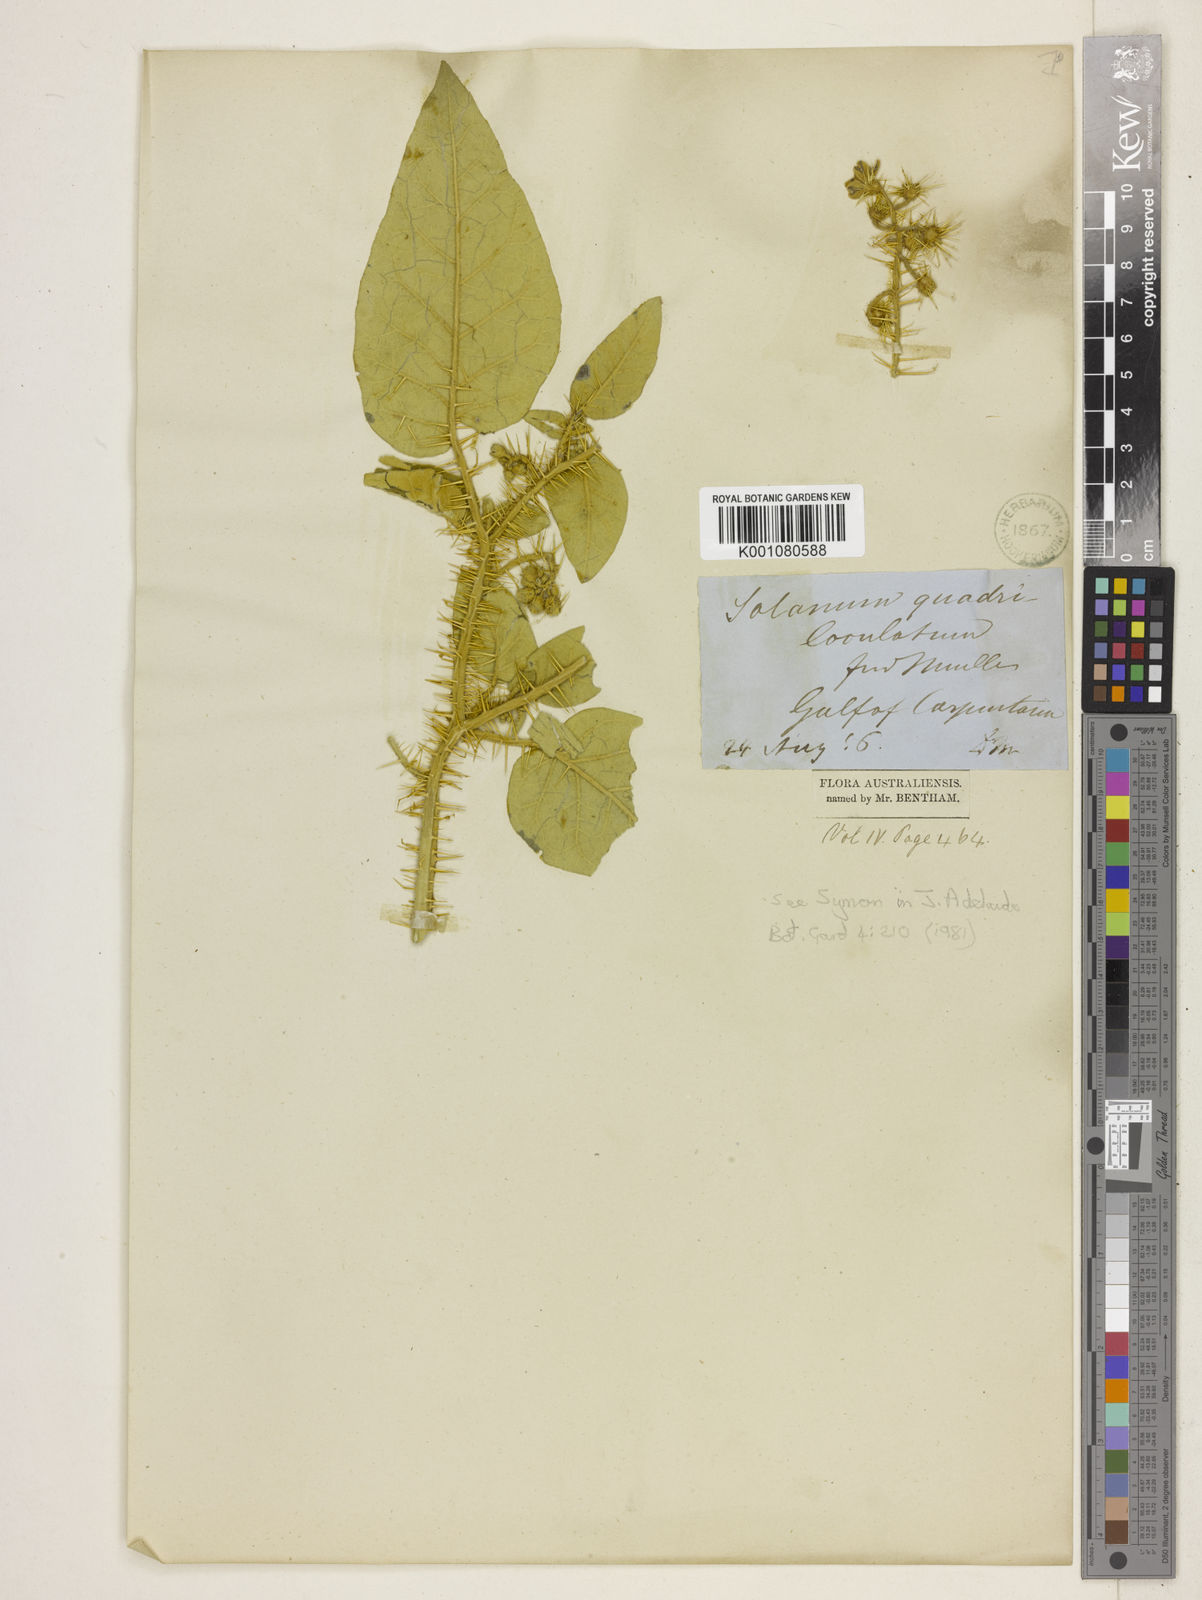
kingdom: Plantae
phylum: Tracheophyta
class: Magnoliopsida
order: Solanales
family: Solanaceae
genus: Solanum
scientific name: Solanum quadriloculatum
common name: Wild tomato
